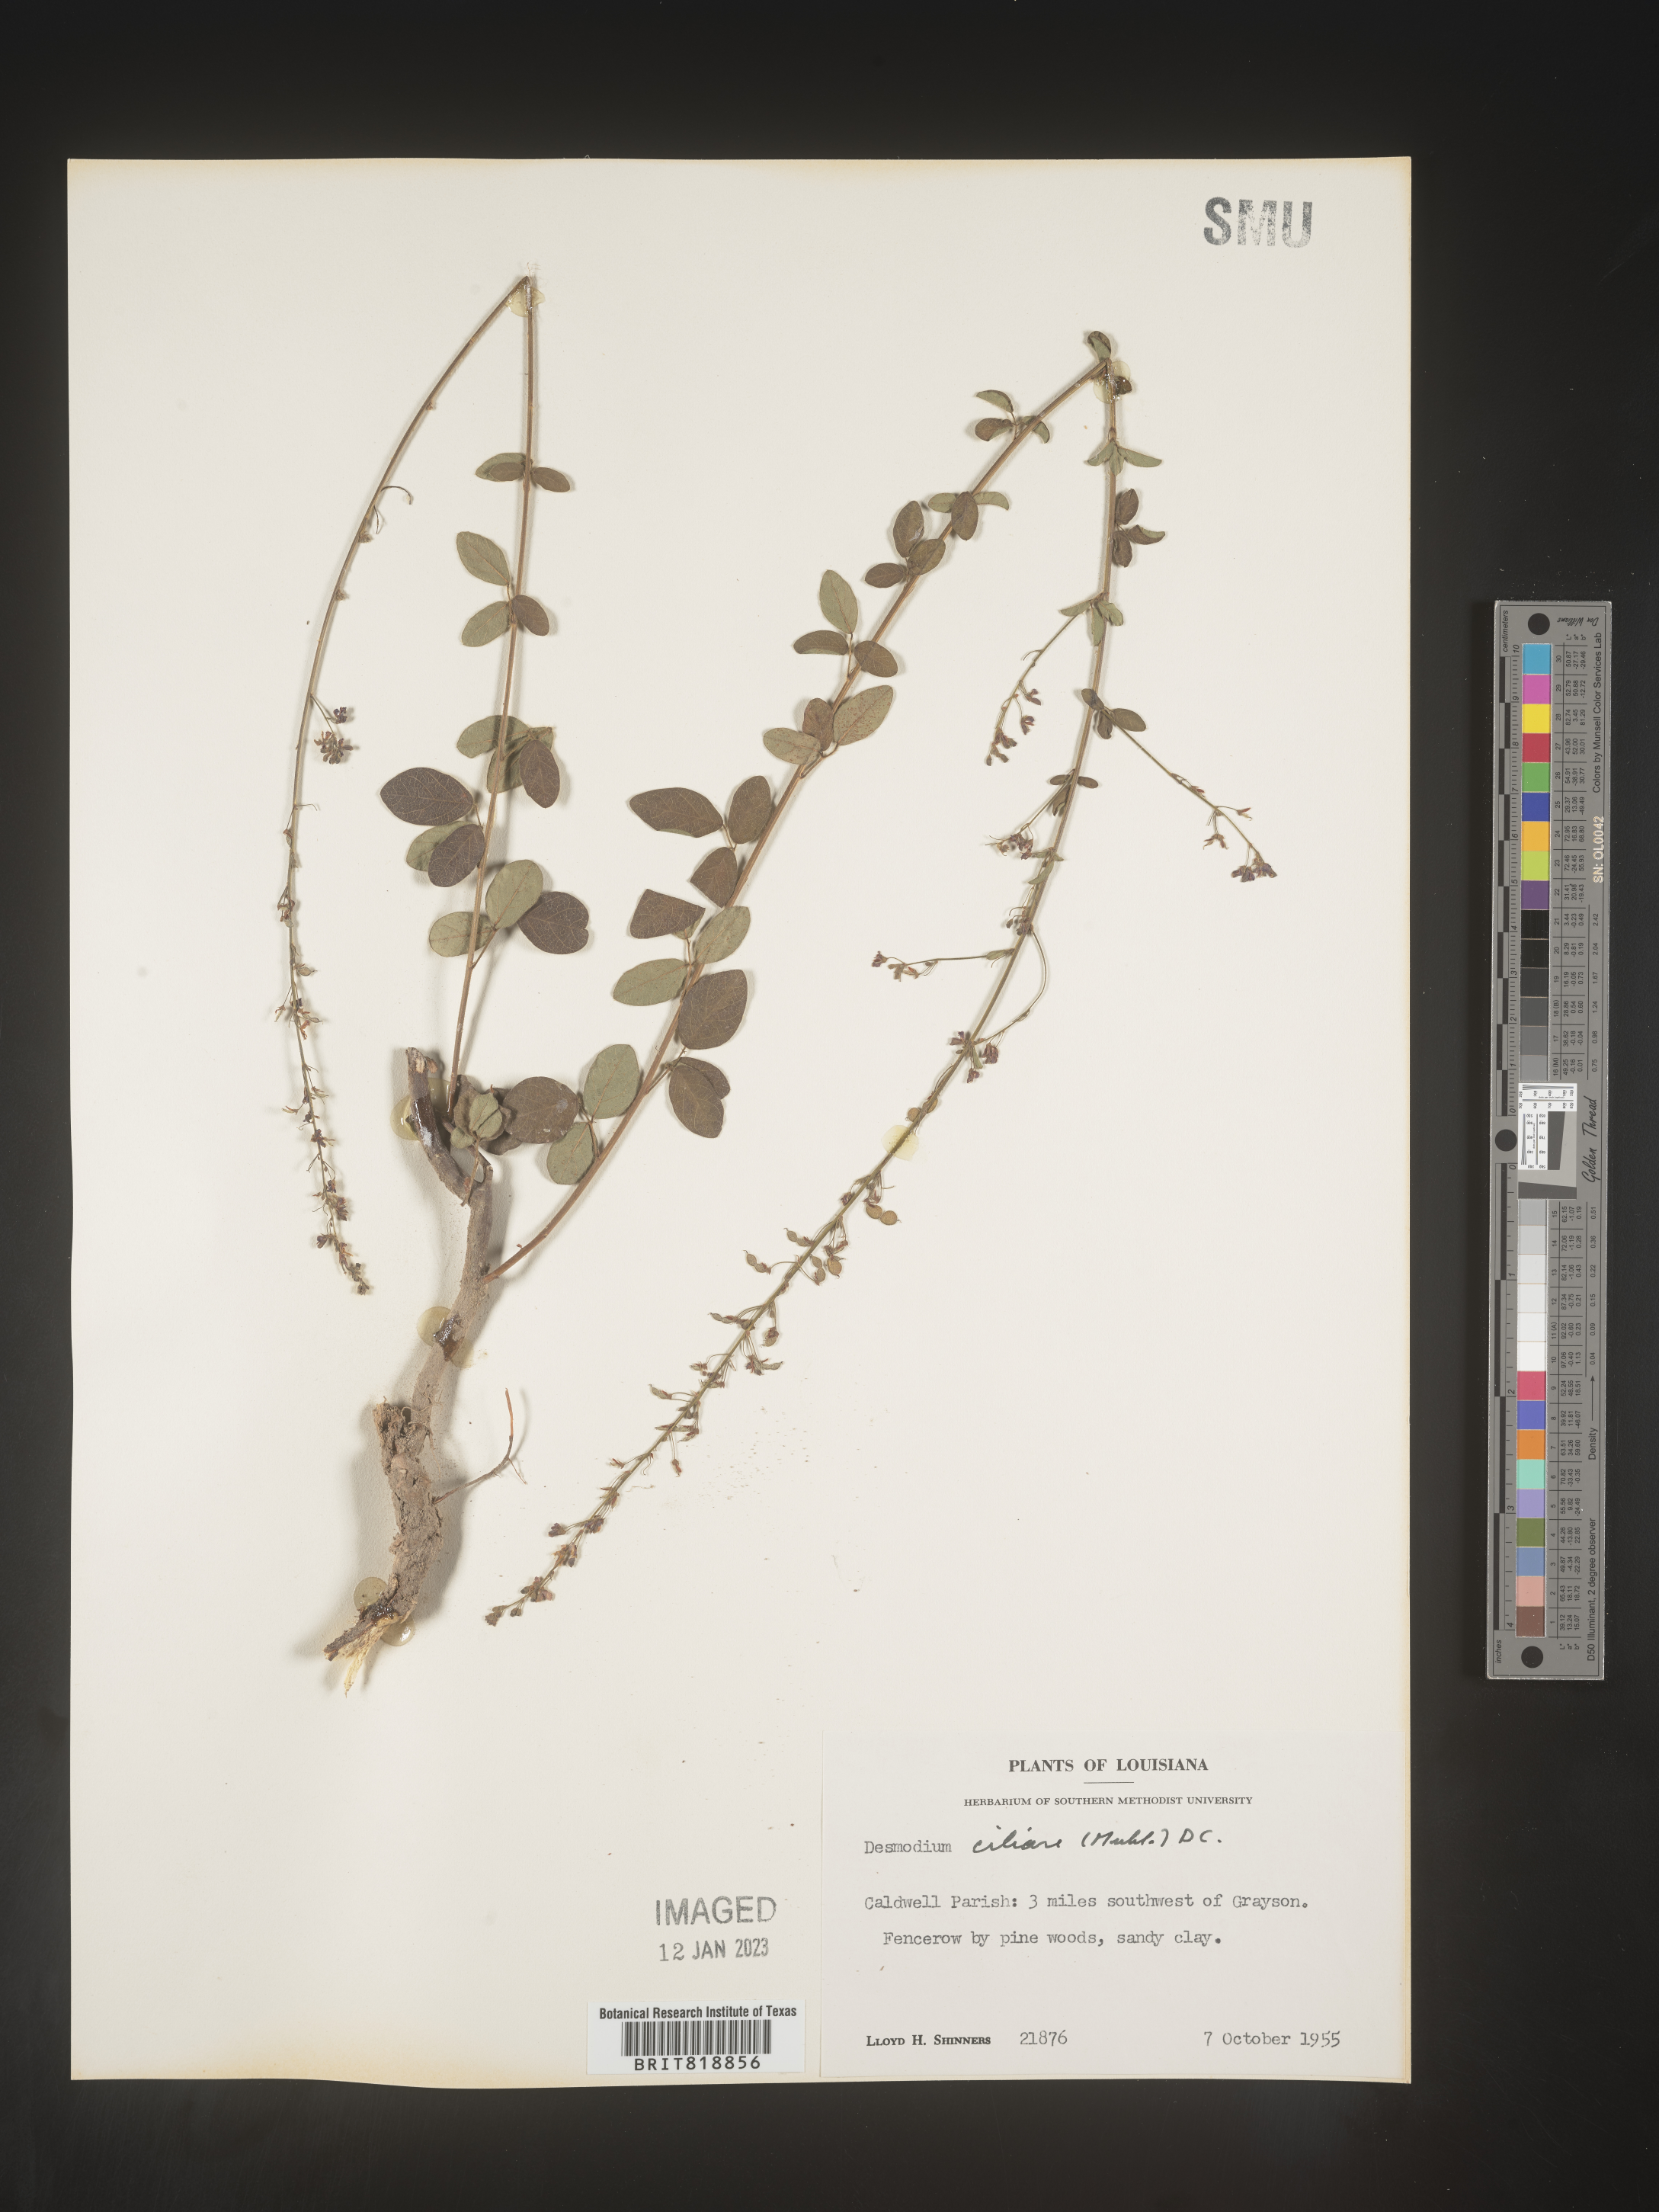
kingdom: Plantae
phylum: Tracheophyta
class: Magnoliopsida
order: Fabales
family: Fabaceae
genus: Desmodium
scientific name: Desmodium ciliare
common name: Hairy small-leaf ticktrefoil
